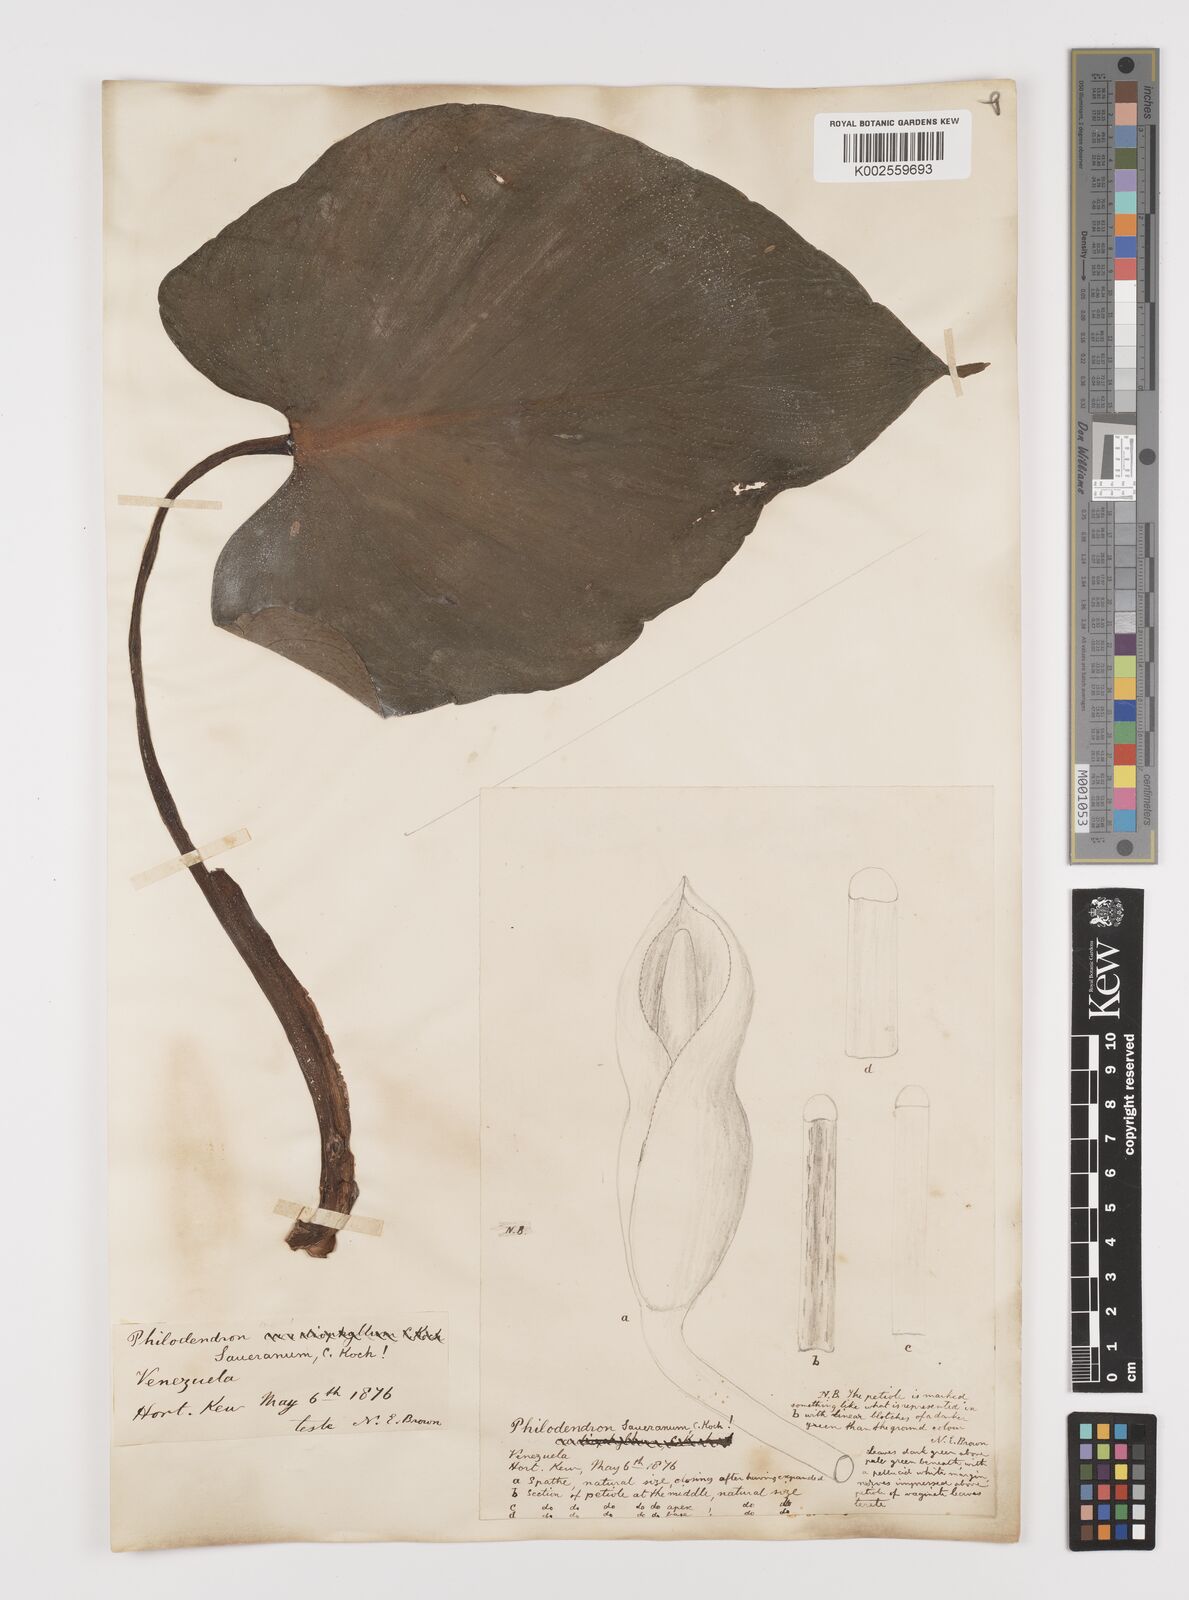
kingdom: Plantae
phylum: Tracheophyta
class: Liliopsida
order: Alismatales
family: Araceae
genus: Philodendron
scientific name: Philodendron eximium
